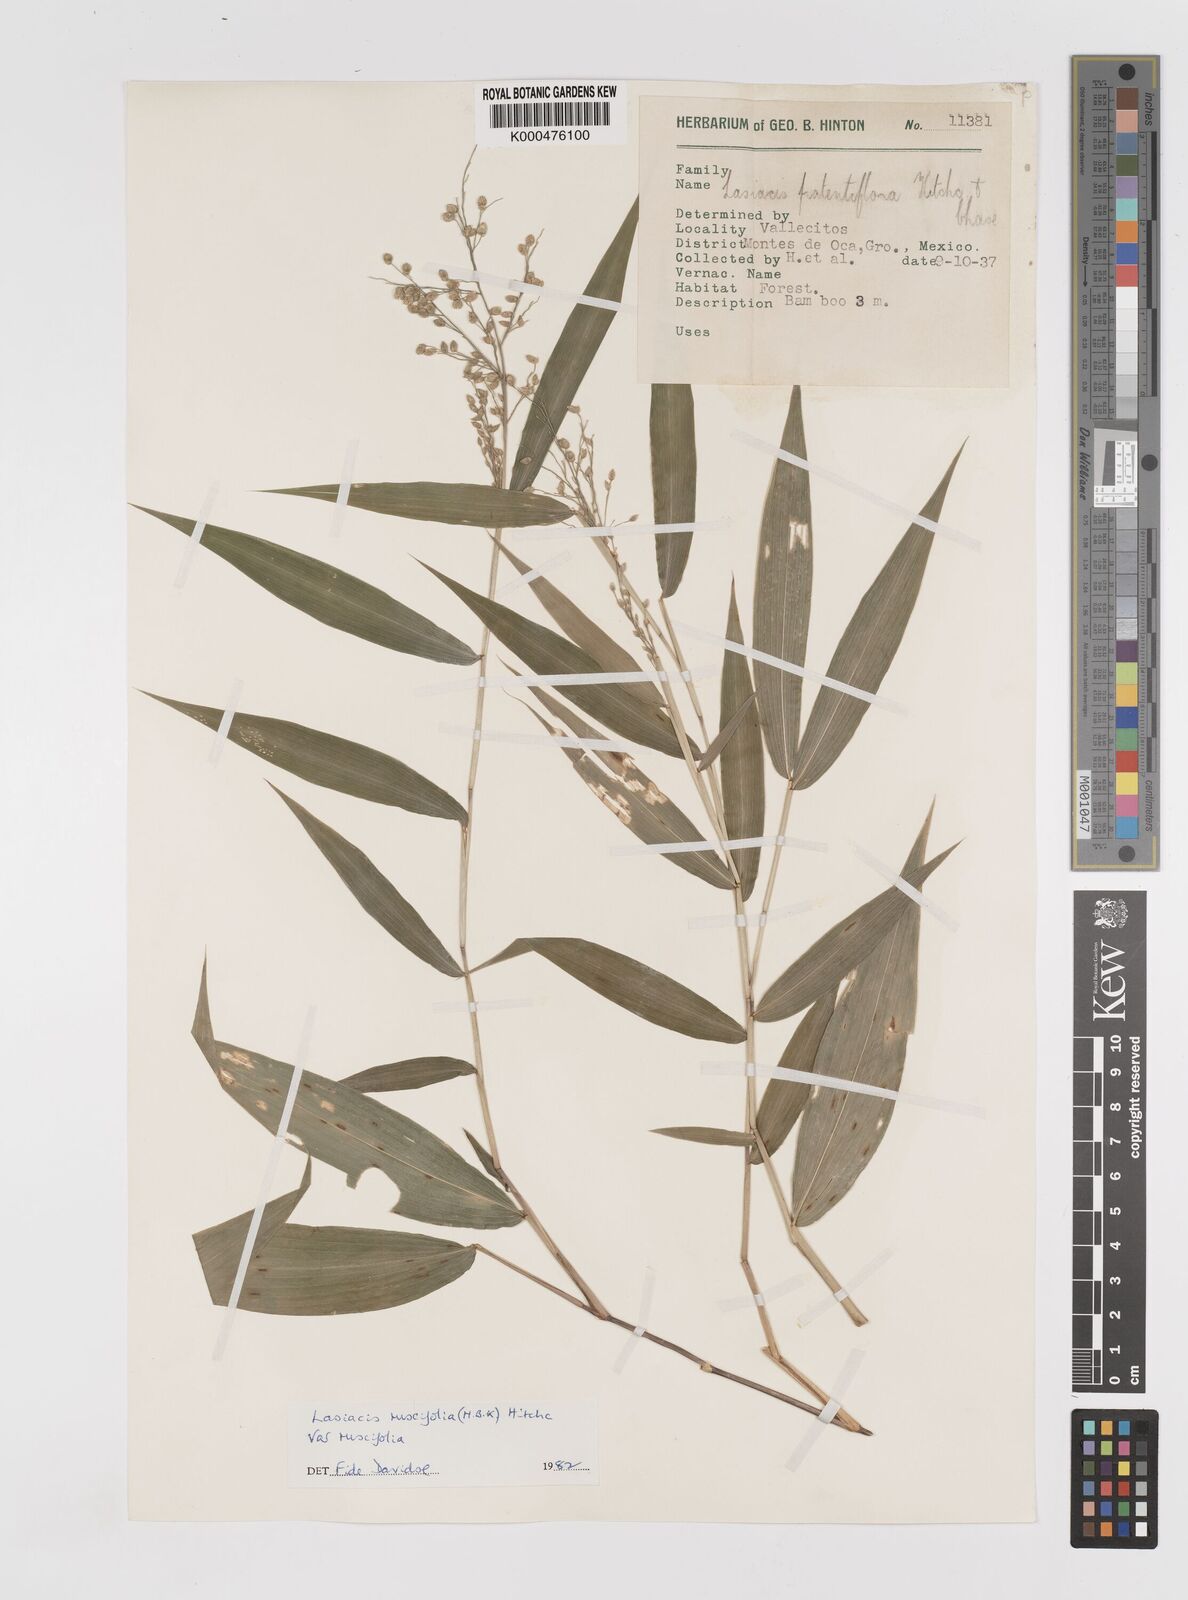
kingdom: Plantae
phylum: Tracheophyta
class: Liliopsida
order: Poales
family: Poaceae
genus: Lasiacis
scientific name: Lasiacis ruscifolia
